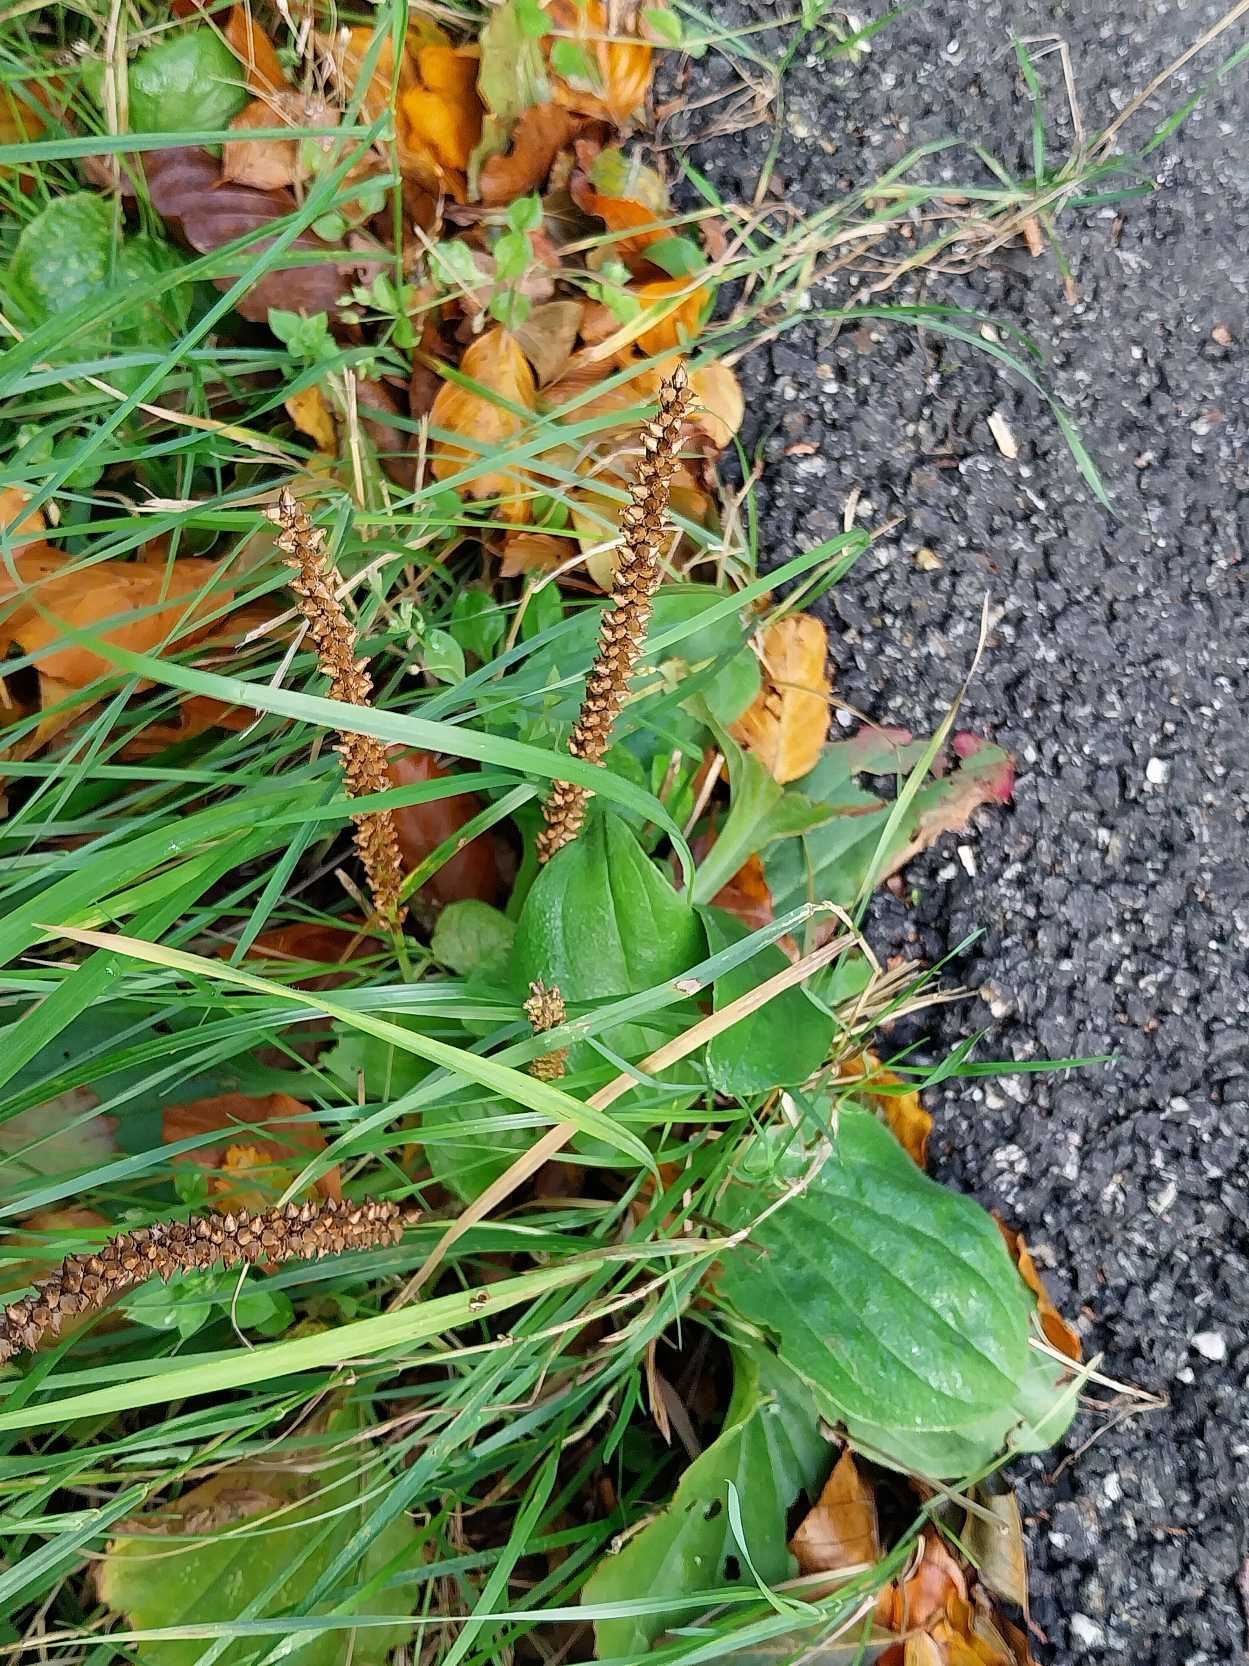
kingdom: Plantae
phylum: Tracheophyta
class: Magnoliopsida
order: Lamiales
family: Plantaginaceae
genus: Plantago
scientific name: Plantago major
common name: Glat vejbred
